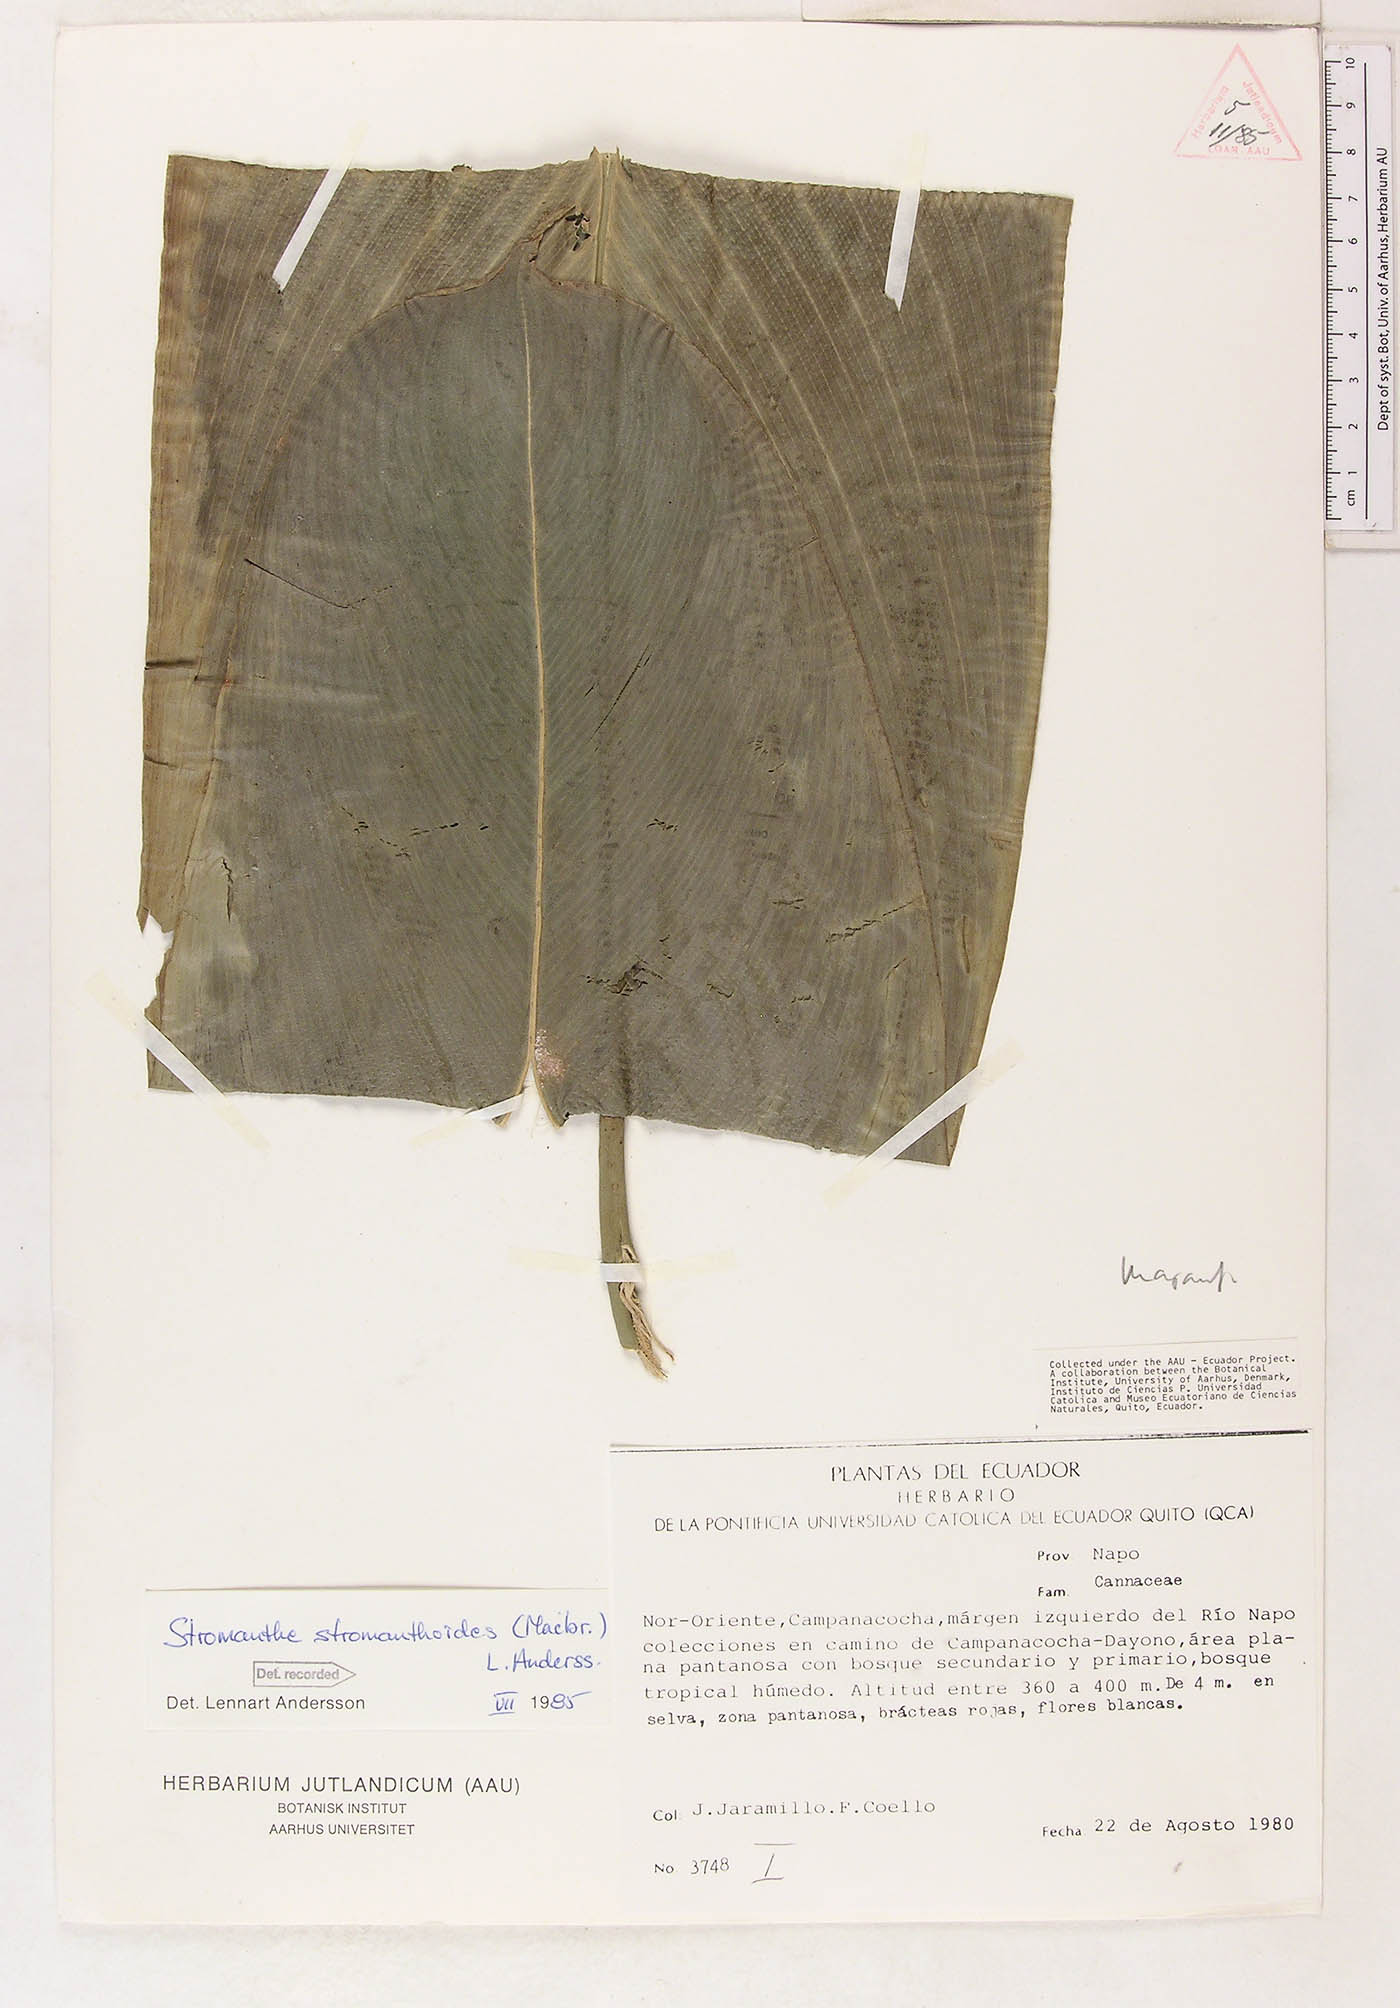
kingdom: Plantae
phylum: Tracheophyta
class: Liliopsida
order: Zingiberales
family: Marantaceae
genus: Stromanthe
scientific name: Stromanthe stromanthoides
